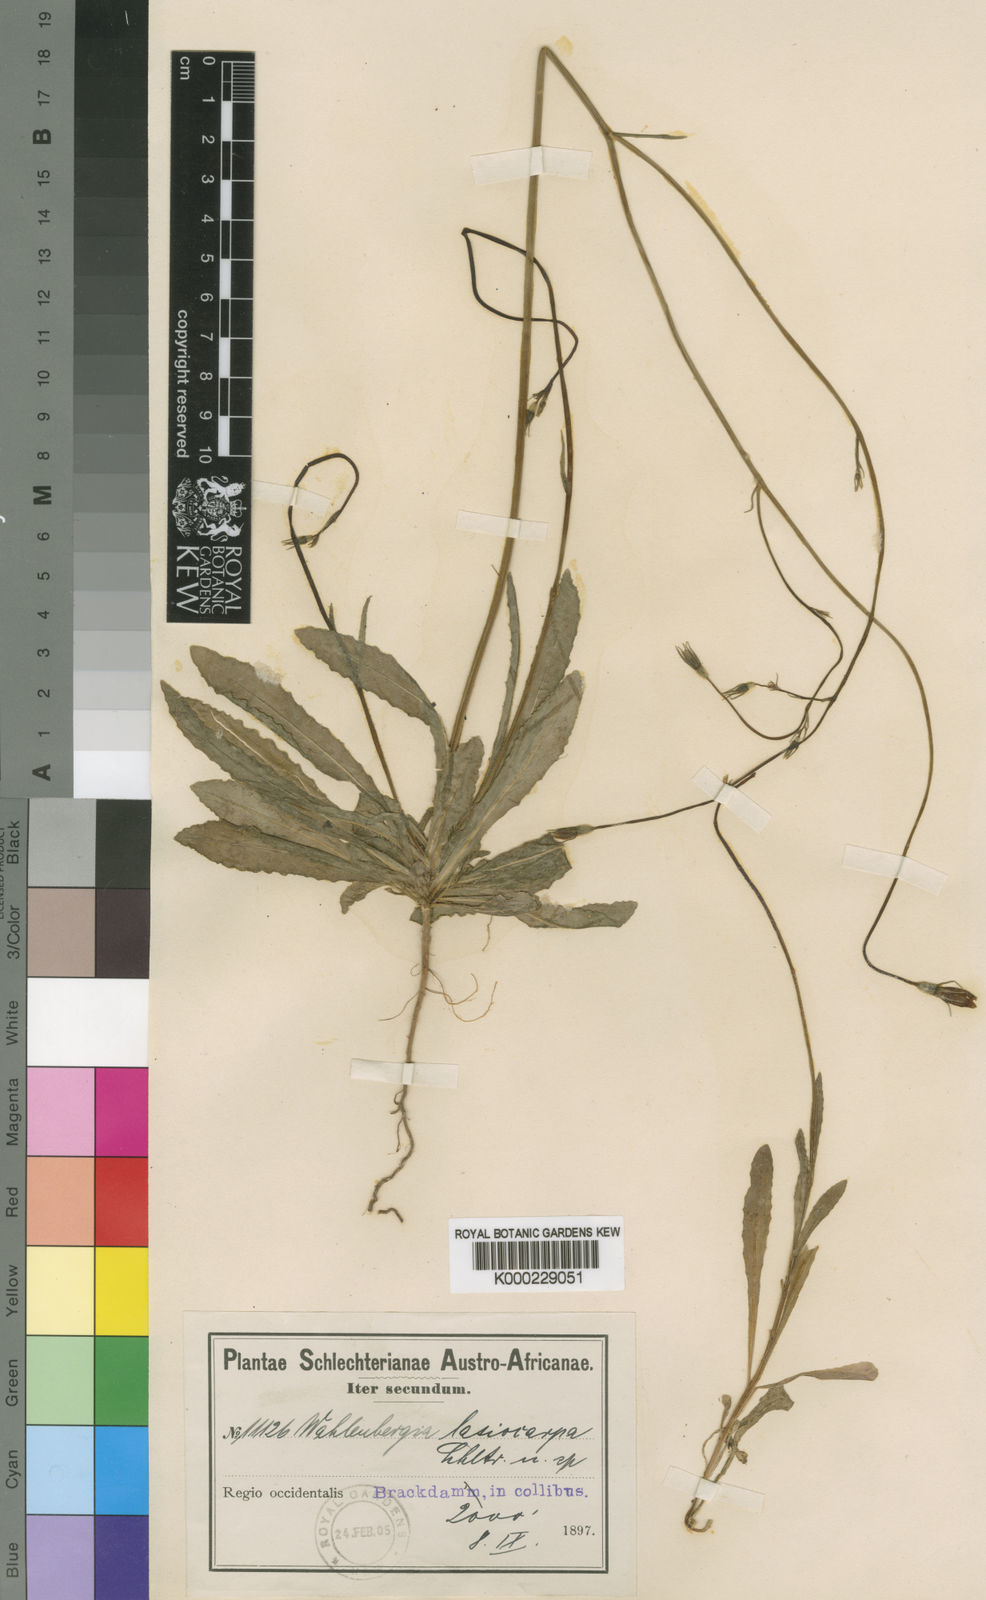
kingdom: Plantae
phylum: Tracheophyta
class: Magnoliopsida
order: Asterales
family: Campanulaceae
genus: Wahlenbergia
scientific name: Wahlenbergia lasiocarpa
